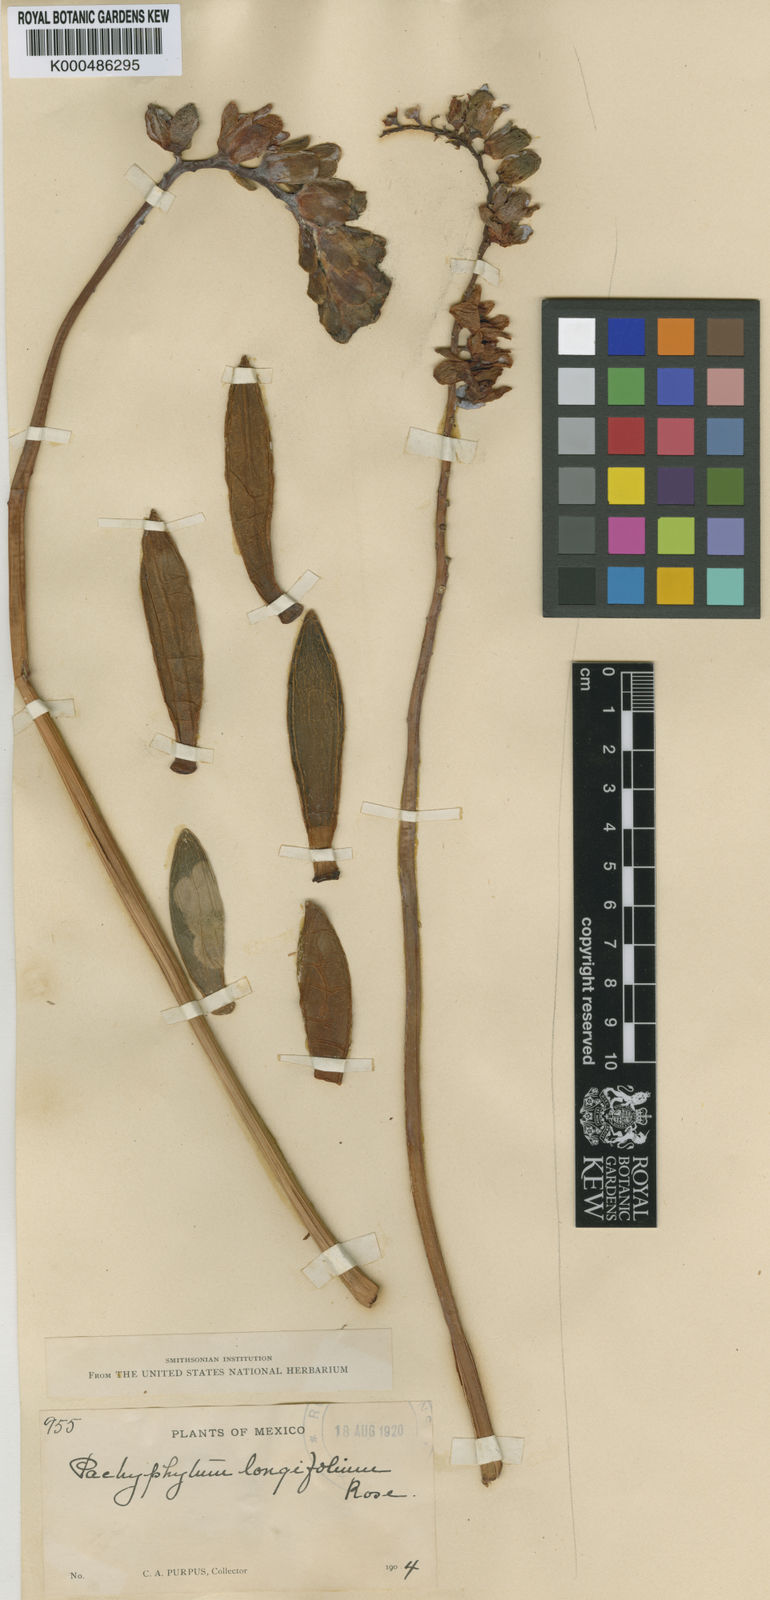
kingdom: Plantae
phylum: Tracheophyta
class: Magnoliopsida
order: Saxifragales
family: Crassulaceae
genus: Pachyphytum
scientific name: Pachyphytum longifolium
